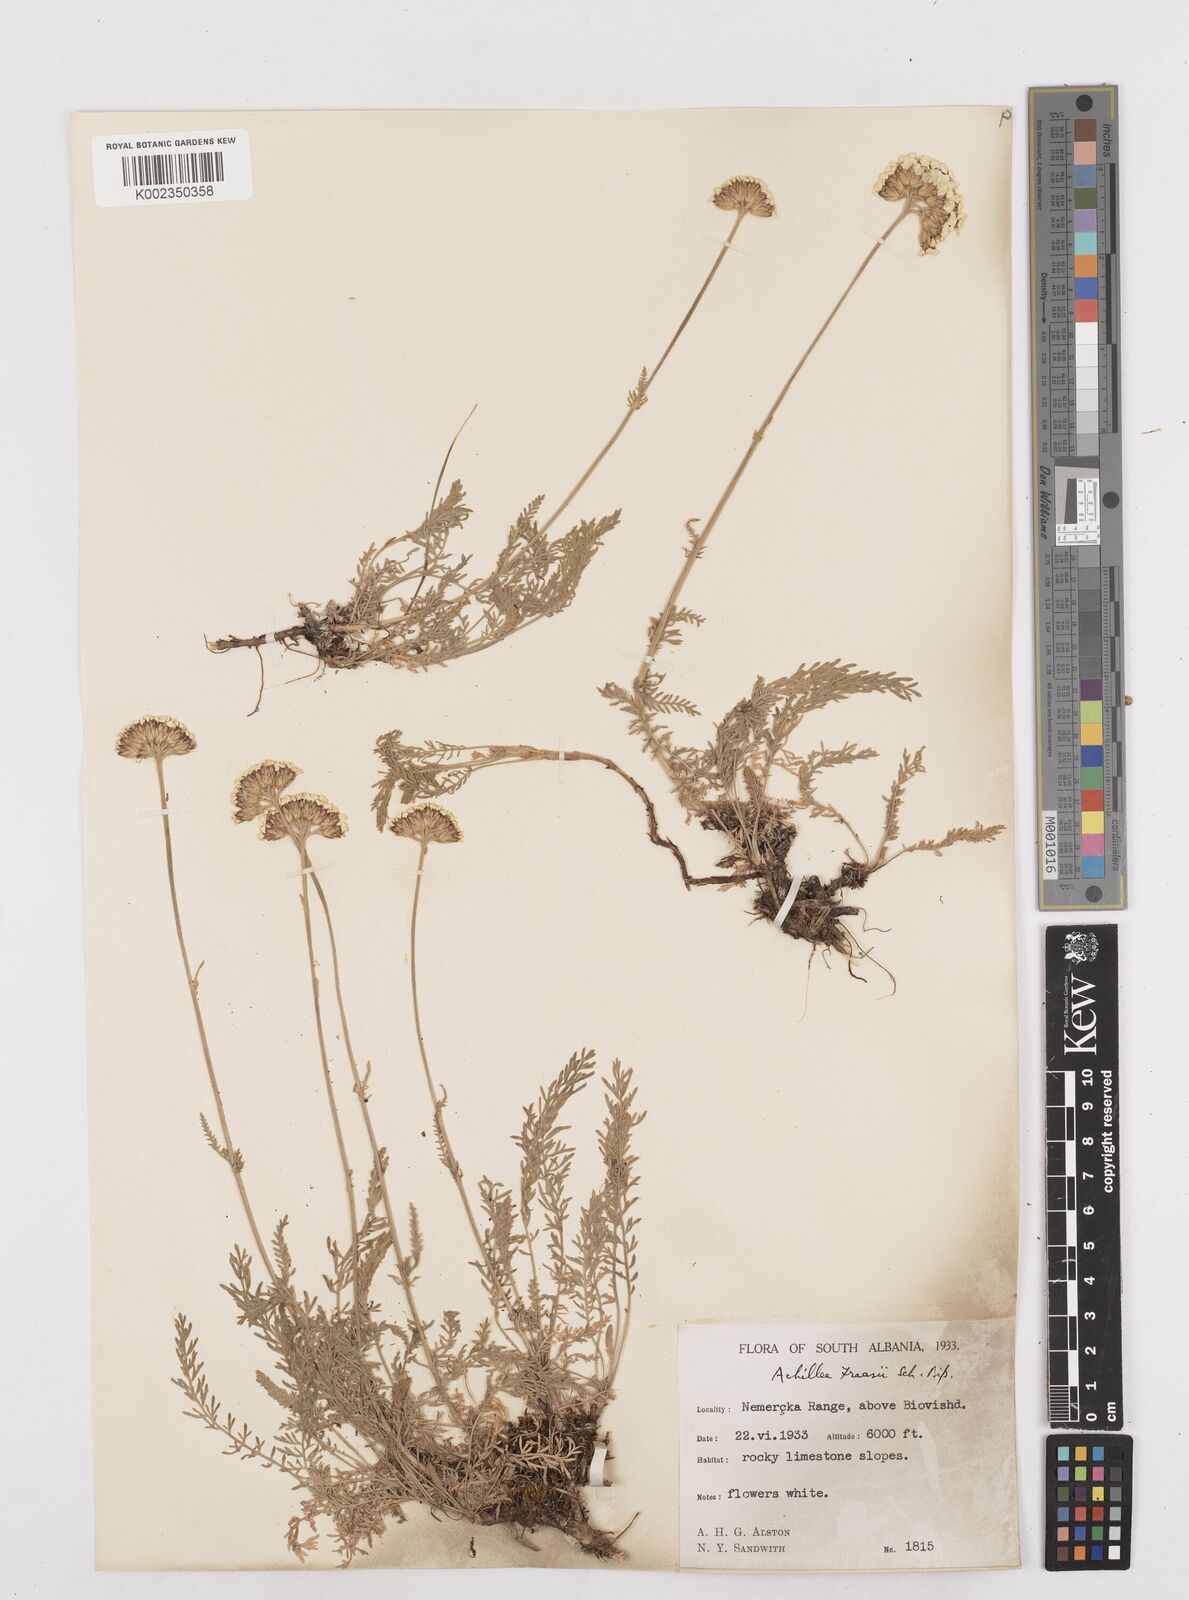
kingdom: Plantae
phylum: Tracheophyta
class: Magnoliopsida
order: Asterales
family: Asteraceae
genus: Achillea
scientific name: Achillea fraasii
